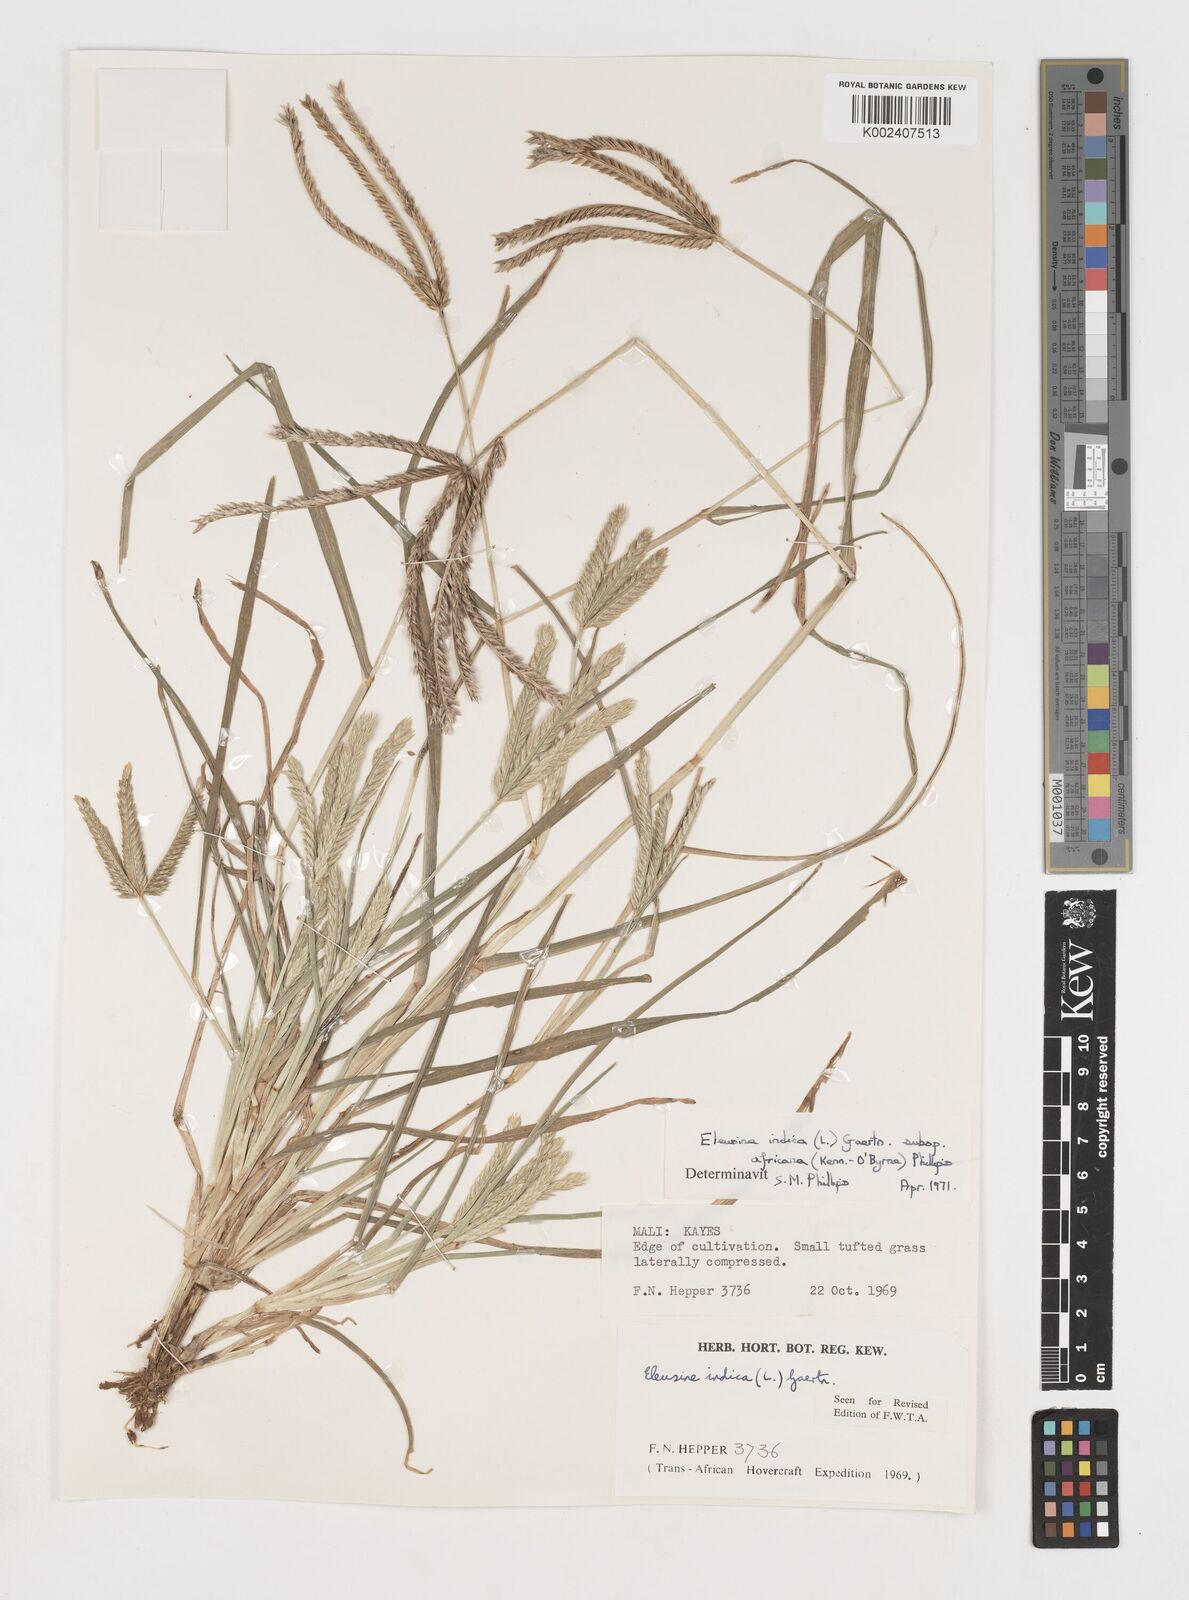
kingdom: Plantae
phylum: Tracheophyta
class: Liliopsida
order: Poales
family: Poaceae
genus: Eleusine
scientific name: Eleusine africana
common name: Wild african finger millet
